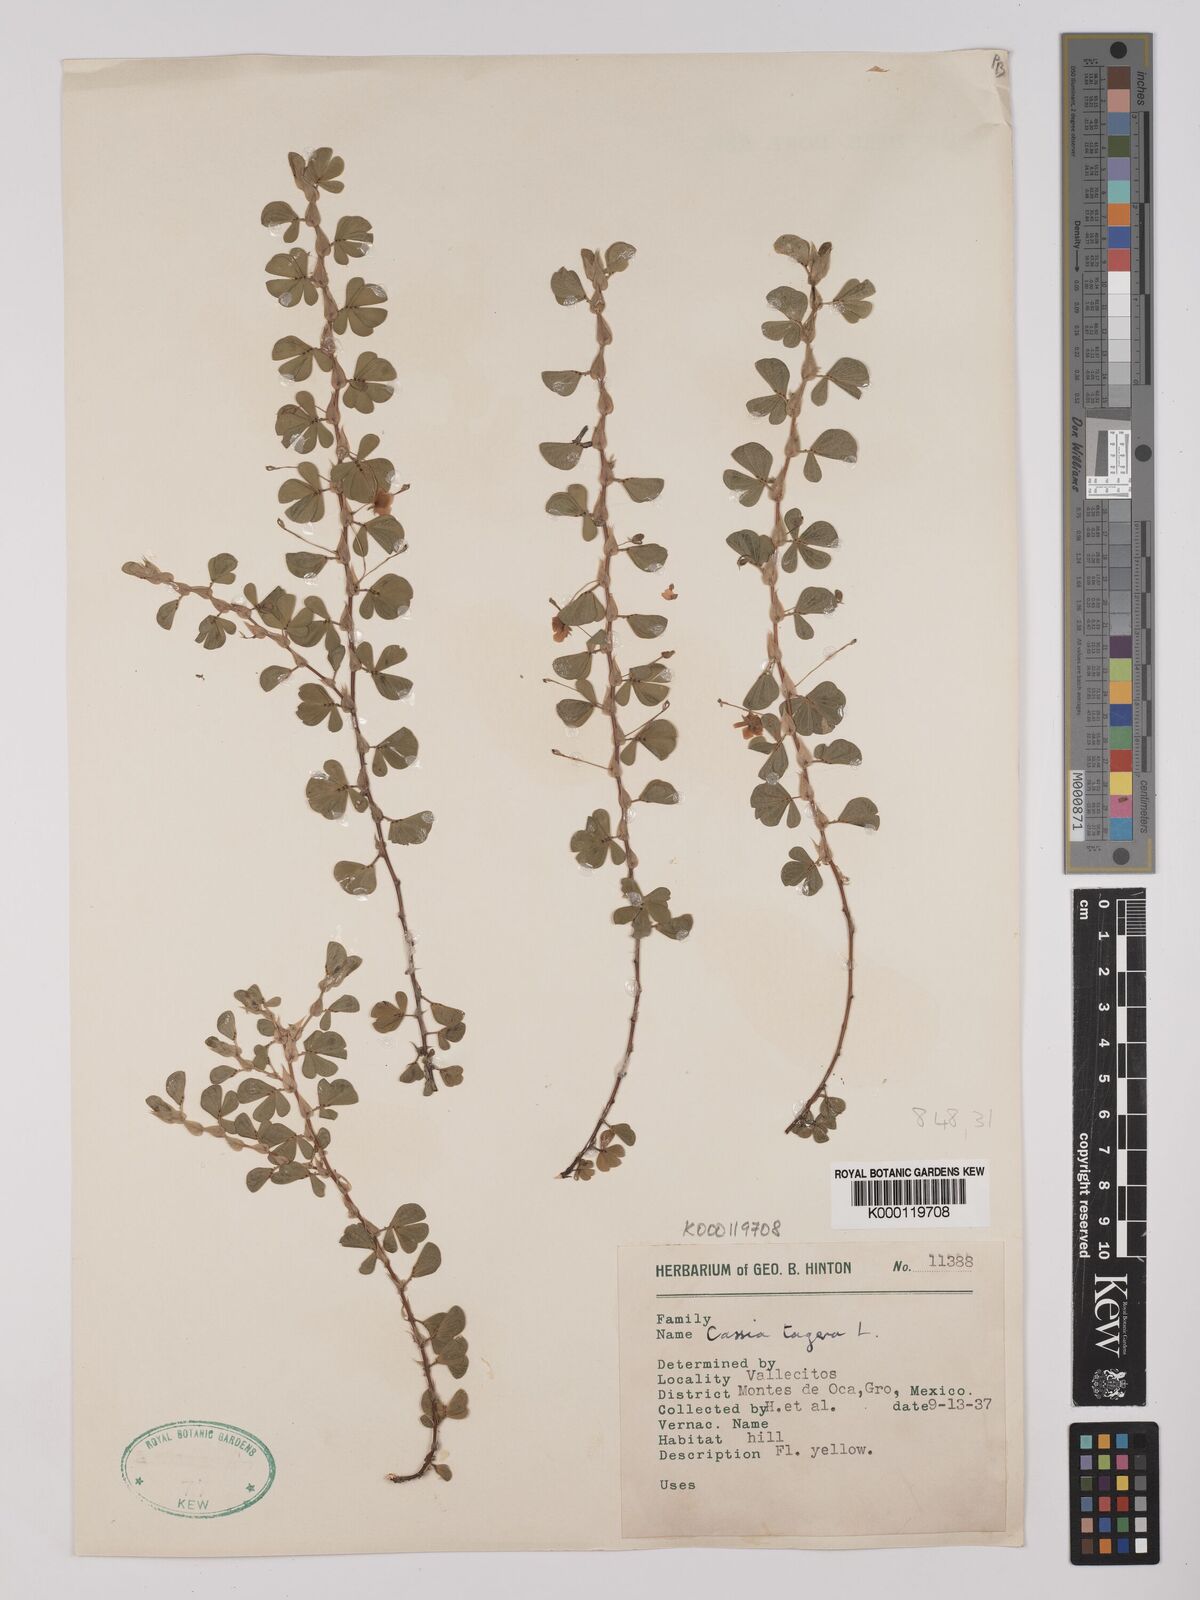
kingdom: Plantae
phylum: Tracheophyta
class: Magnoliopsida
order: Fabales
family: Fabaceae
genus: Chamaecrista
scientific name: Chamaecrista kunthiana
